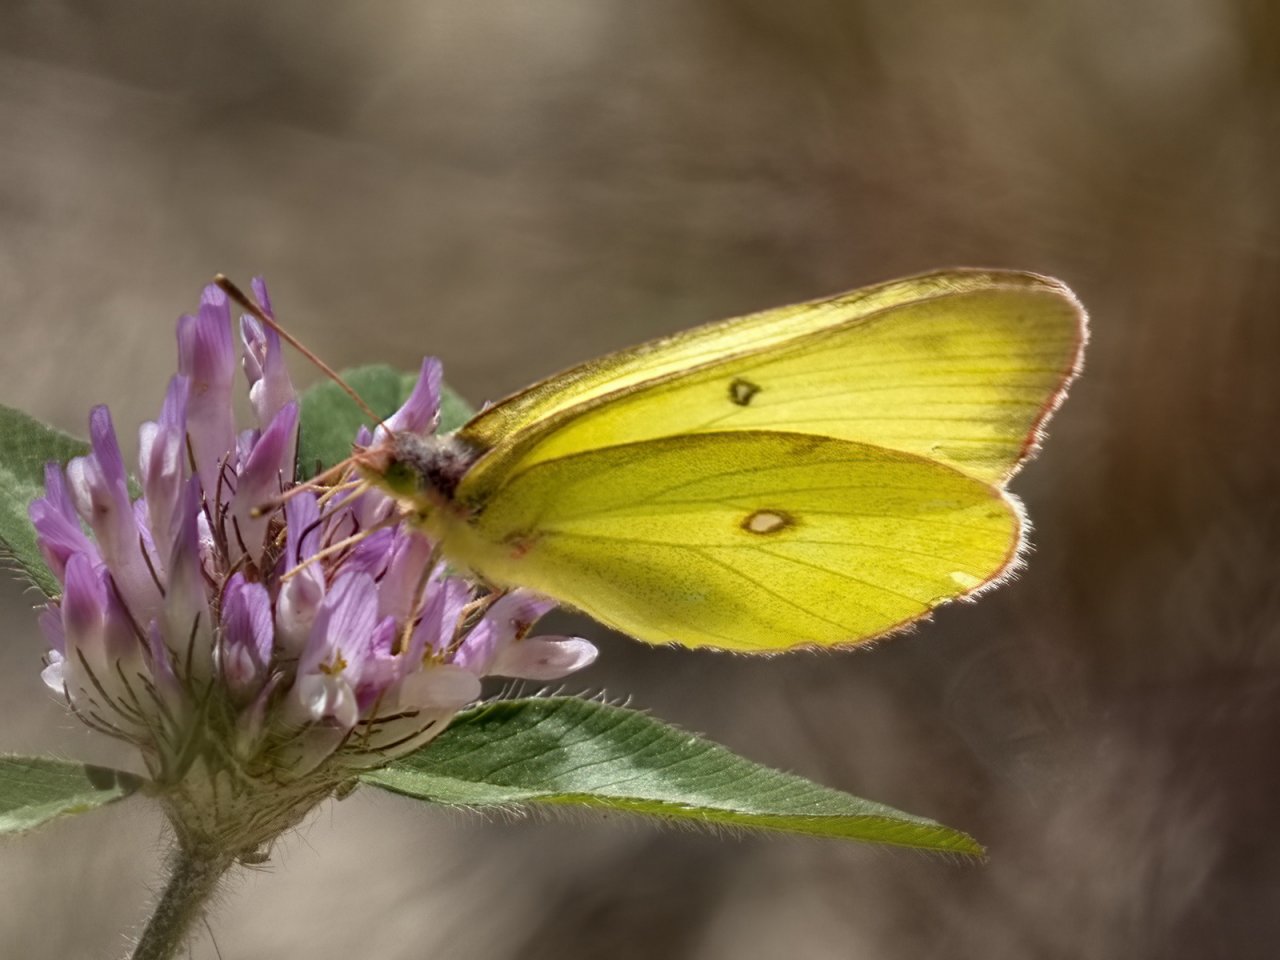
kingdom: Animalia
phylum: Arthropoda
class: Insecta
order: Lepidoptera
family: Pieridae
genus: Colias
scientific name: Colias interior
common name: Pink-edged Sulphur
